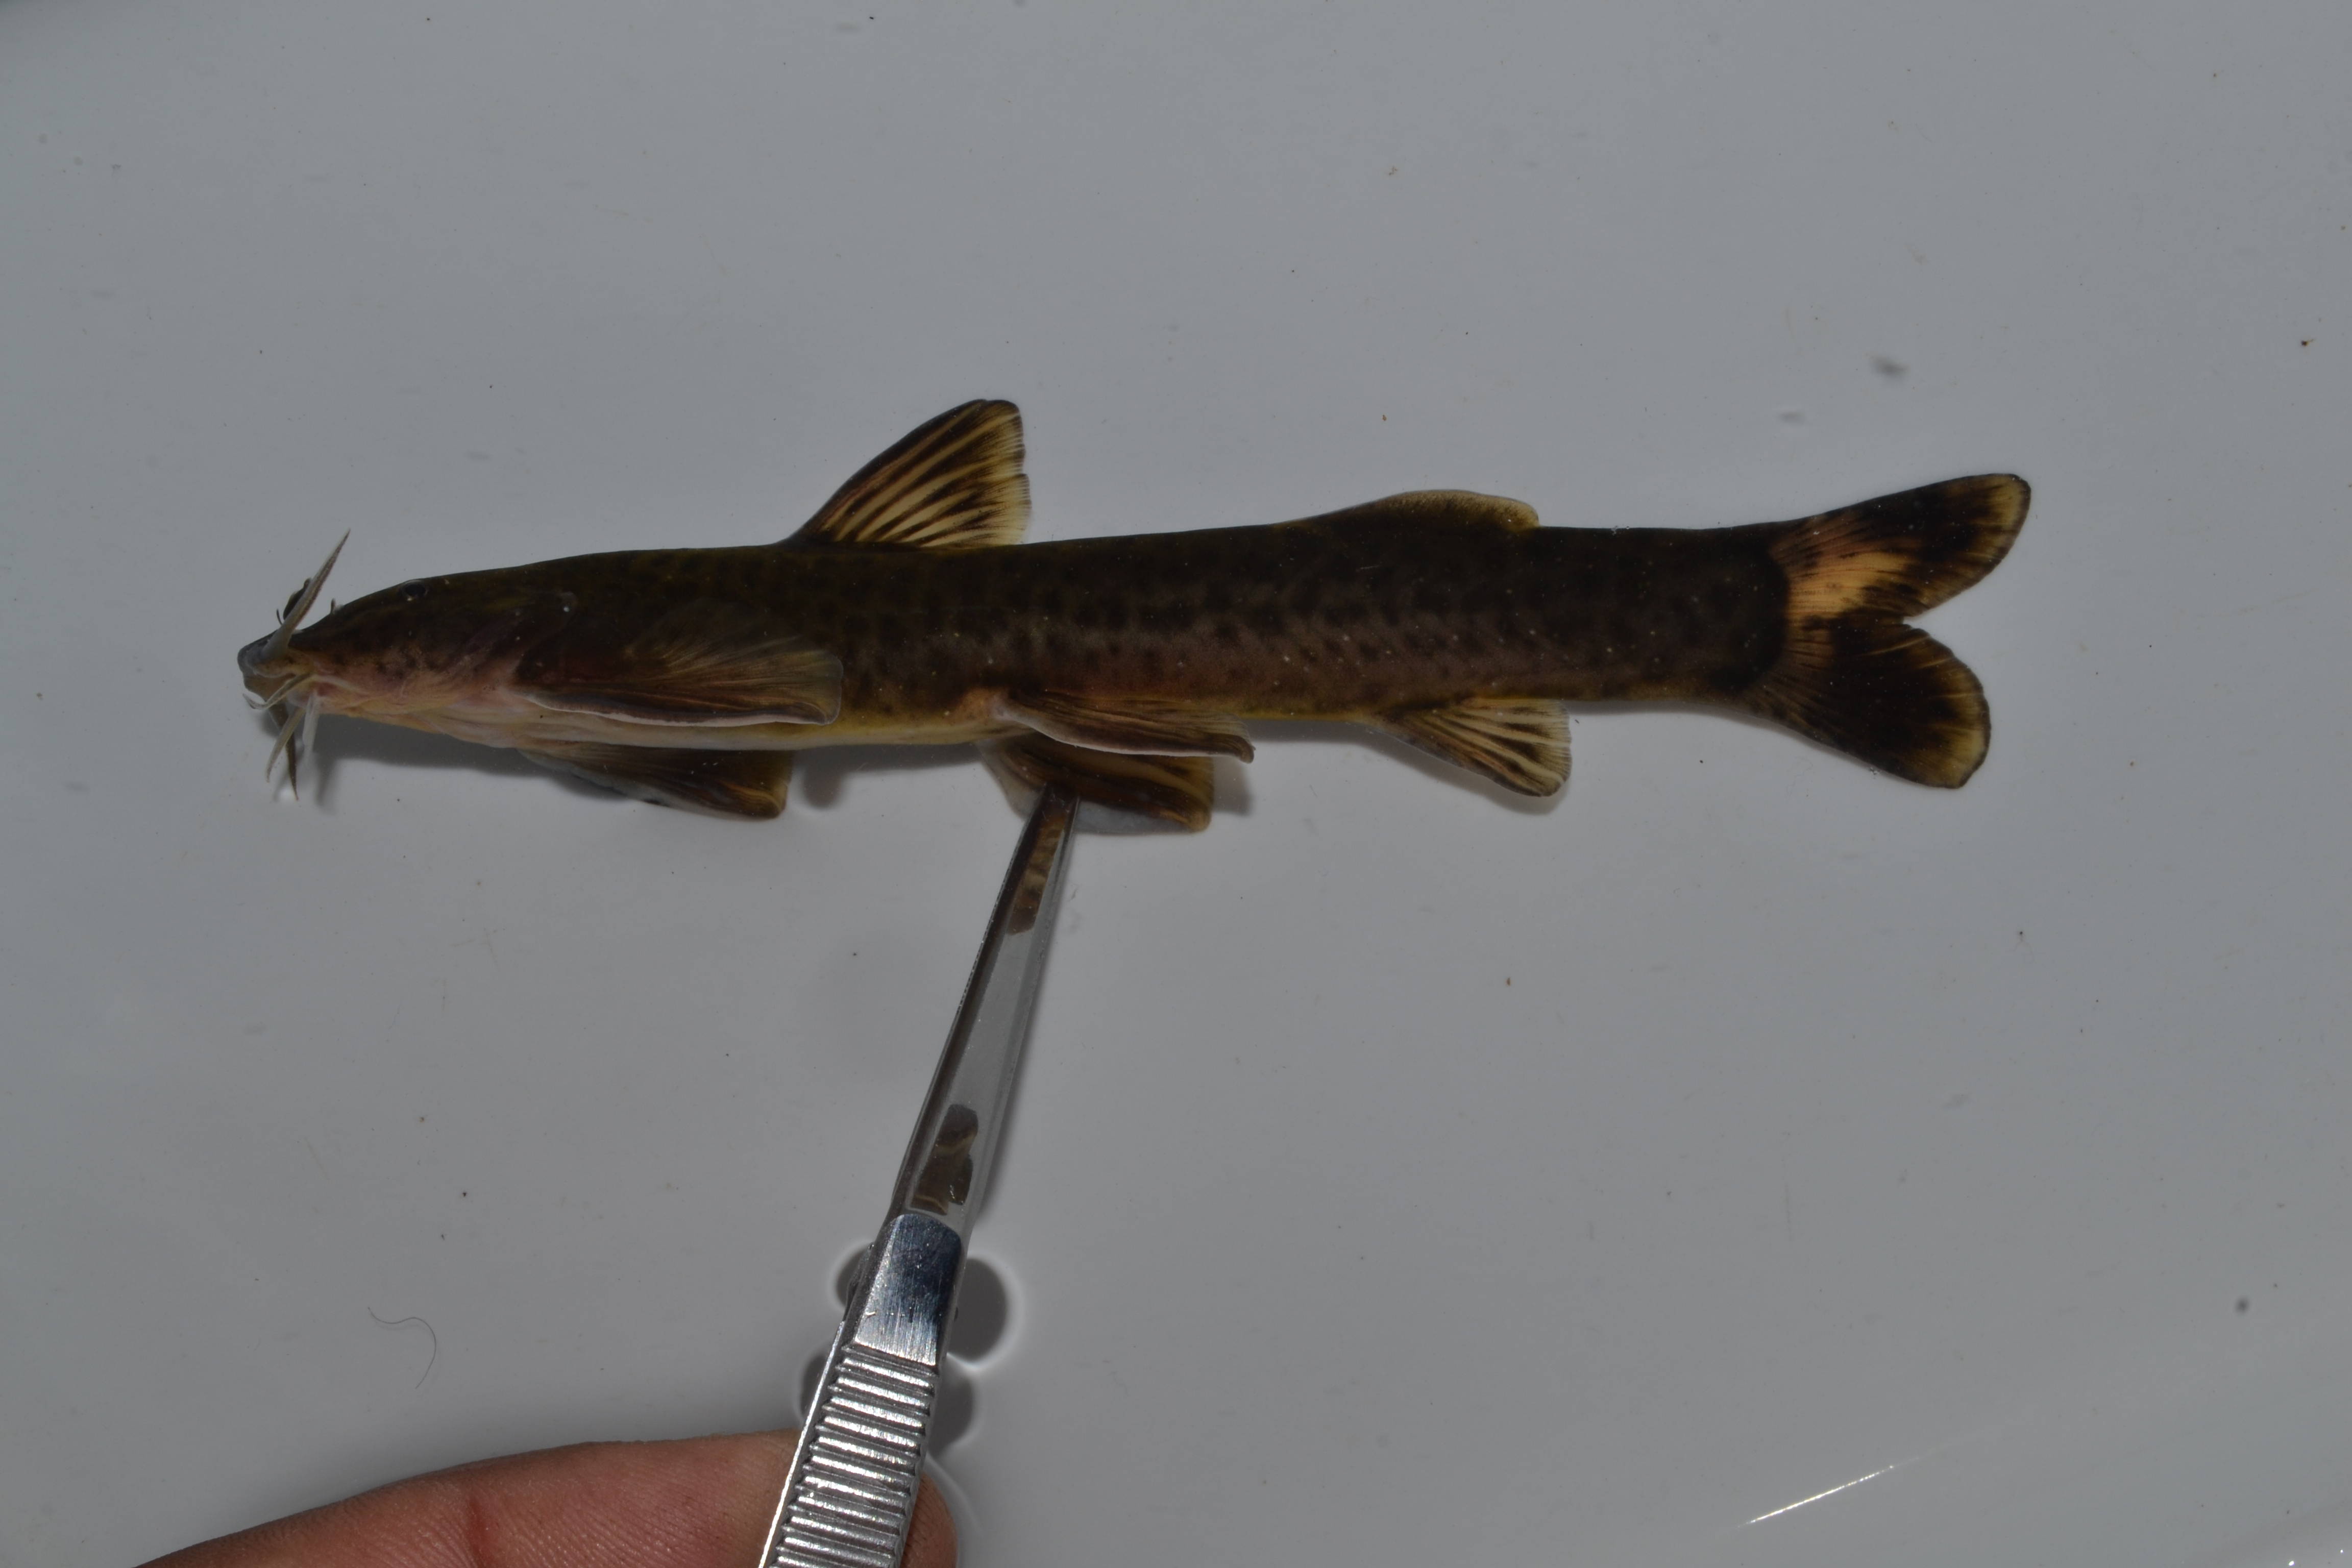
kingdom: Animalia
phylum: Chordata
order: Siluriformes
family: Amphiliidae
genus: Amphilius
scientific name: Amphilius zuluorum
